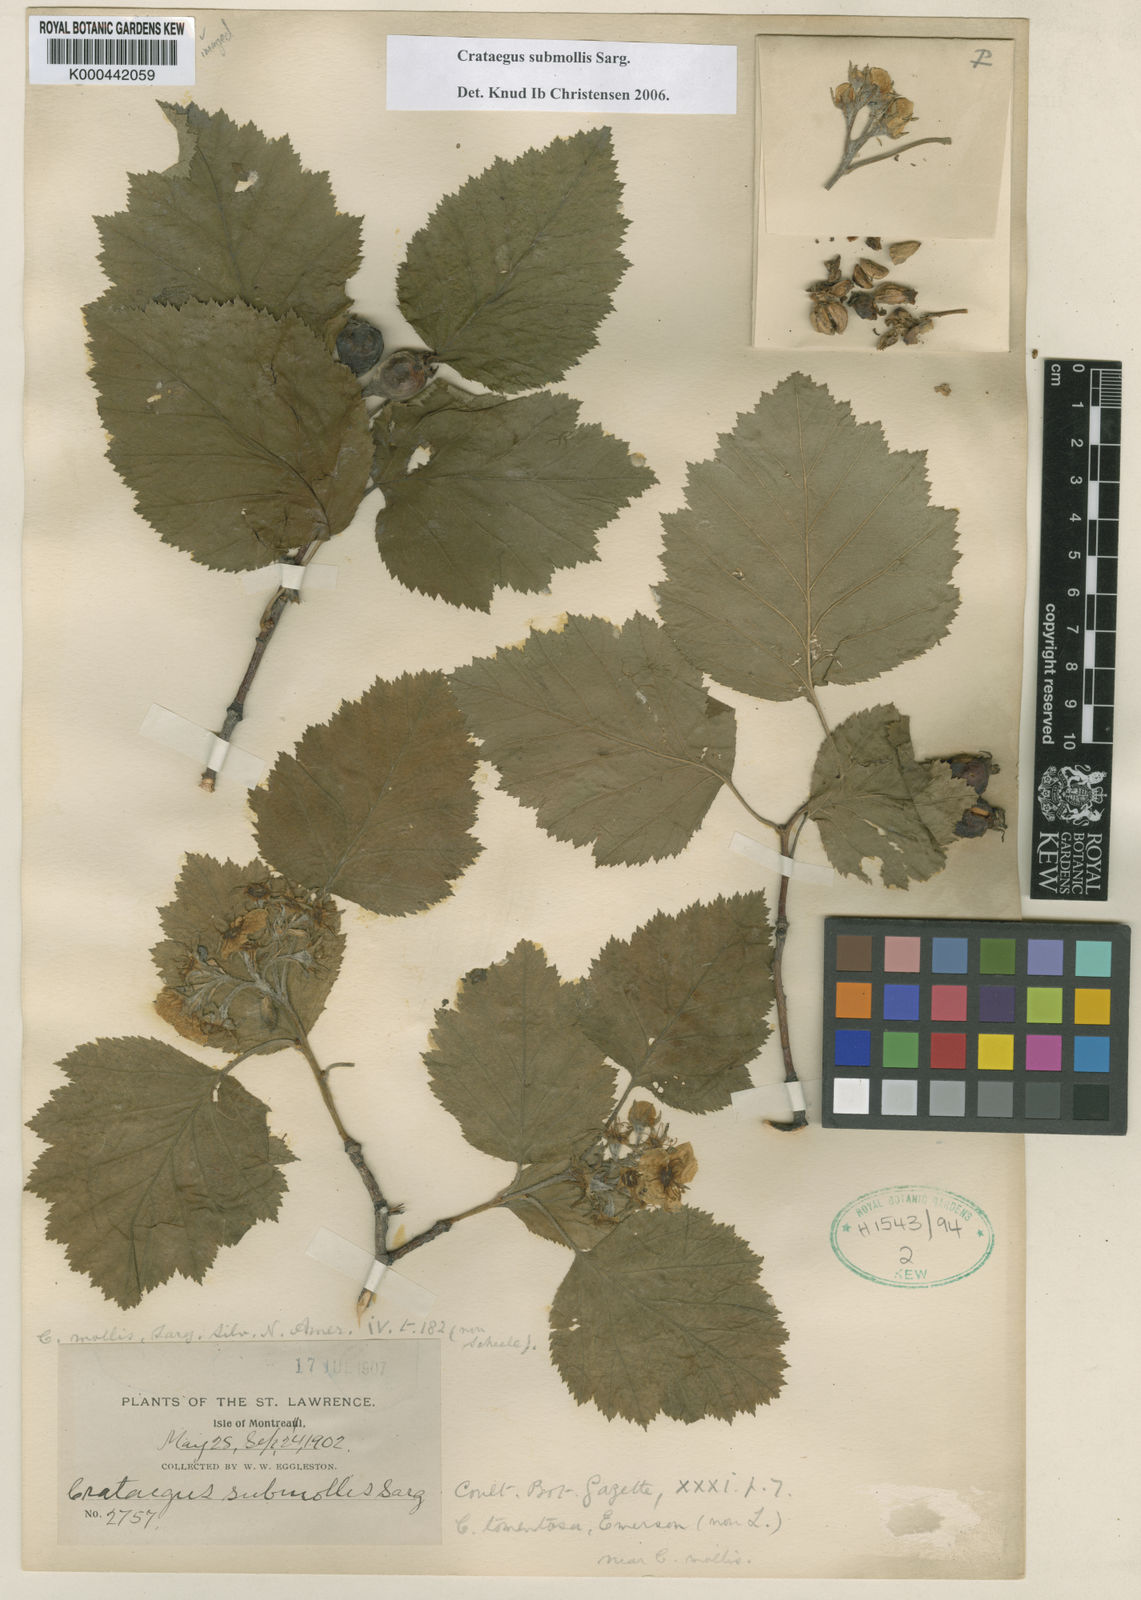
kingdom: Plantae
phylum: Tracheophyta
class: Magnoliopsida
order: Rosales
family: Rosaceae
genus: Crataegus
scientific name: Crataegus submollis
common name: Hairy cockspurthorn
